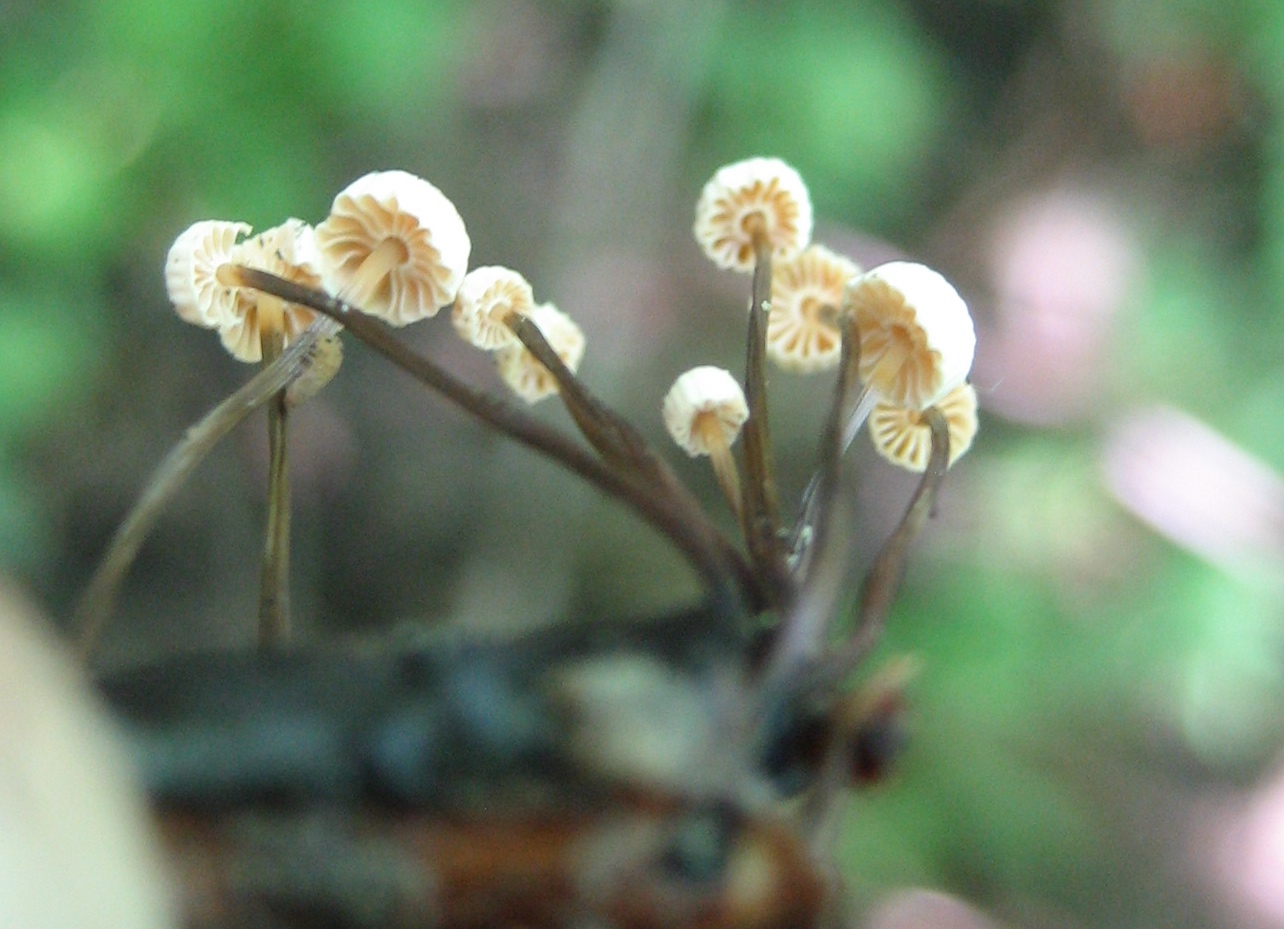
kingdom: Fungi
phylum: Basidiomycota
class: Agaricomycetes
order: Agaricales
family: Marasmiaceae
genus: Marasmius
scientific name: Marasmius rotula
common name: hjul-bruskhat
